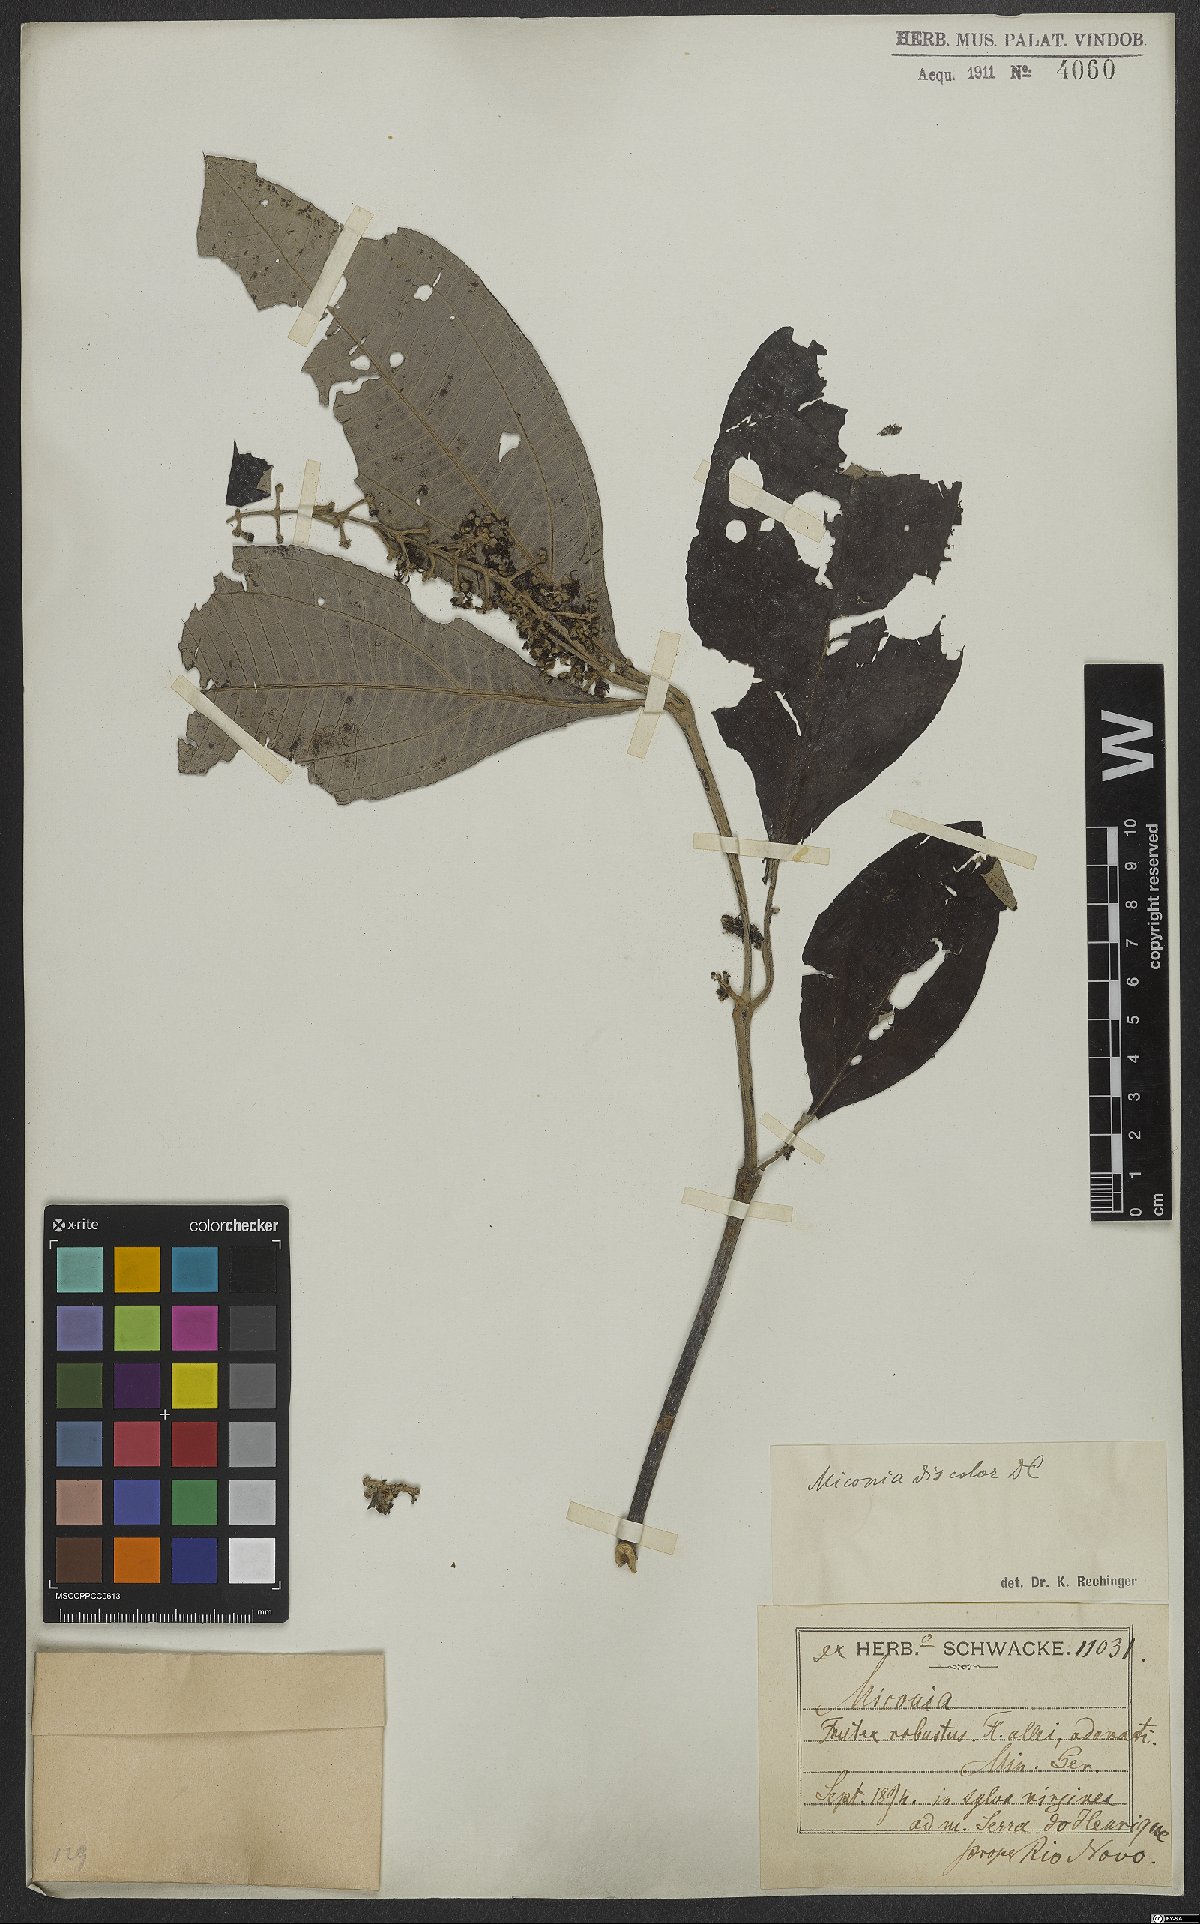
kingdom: Plantae
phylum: Tracheophyta
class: Magnoliopsida
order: Myrtales
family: Melastomataceae
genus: Miconia
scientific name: Miconia discolor
